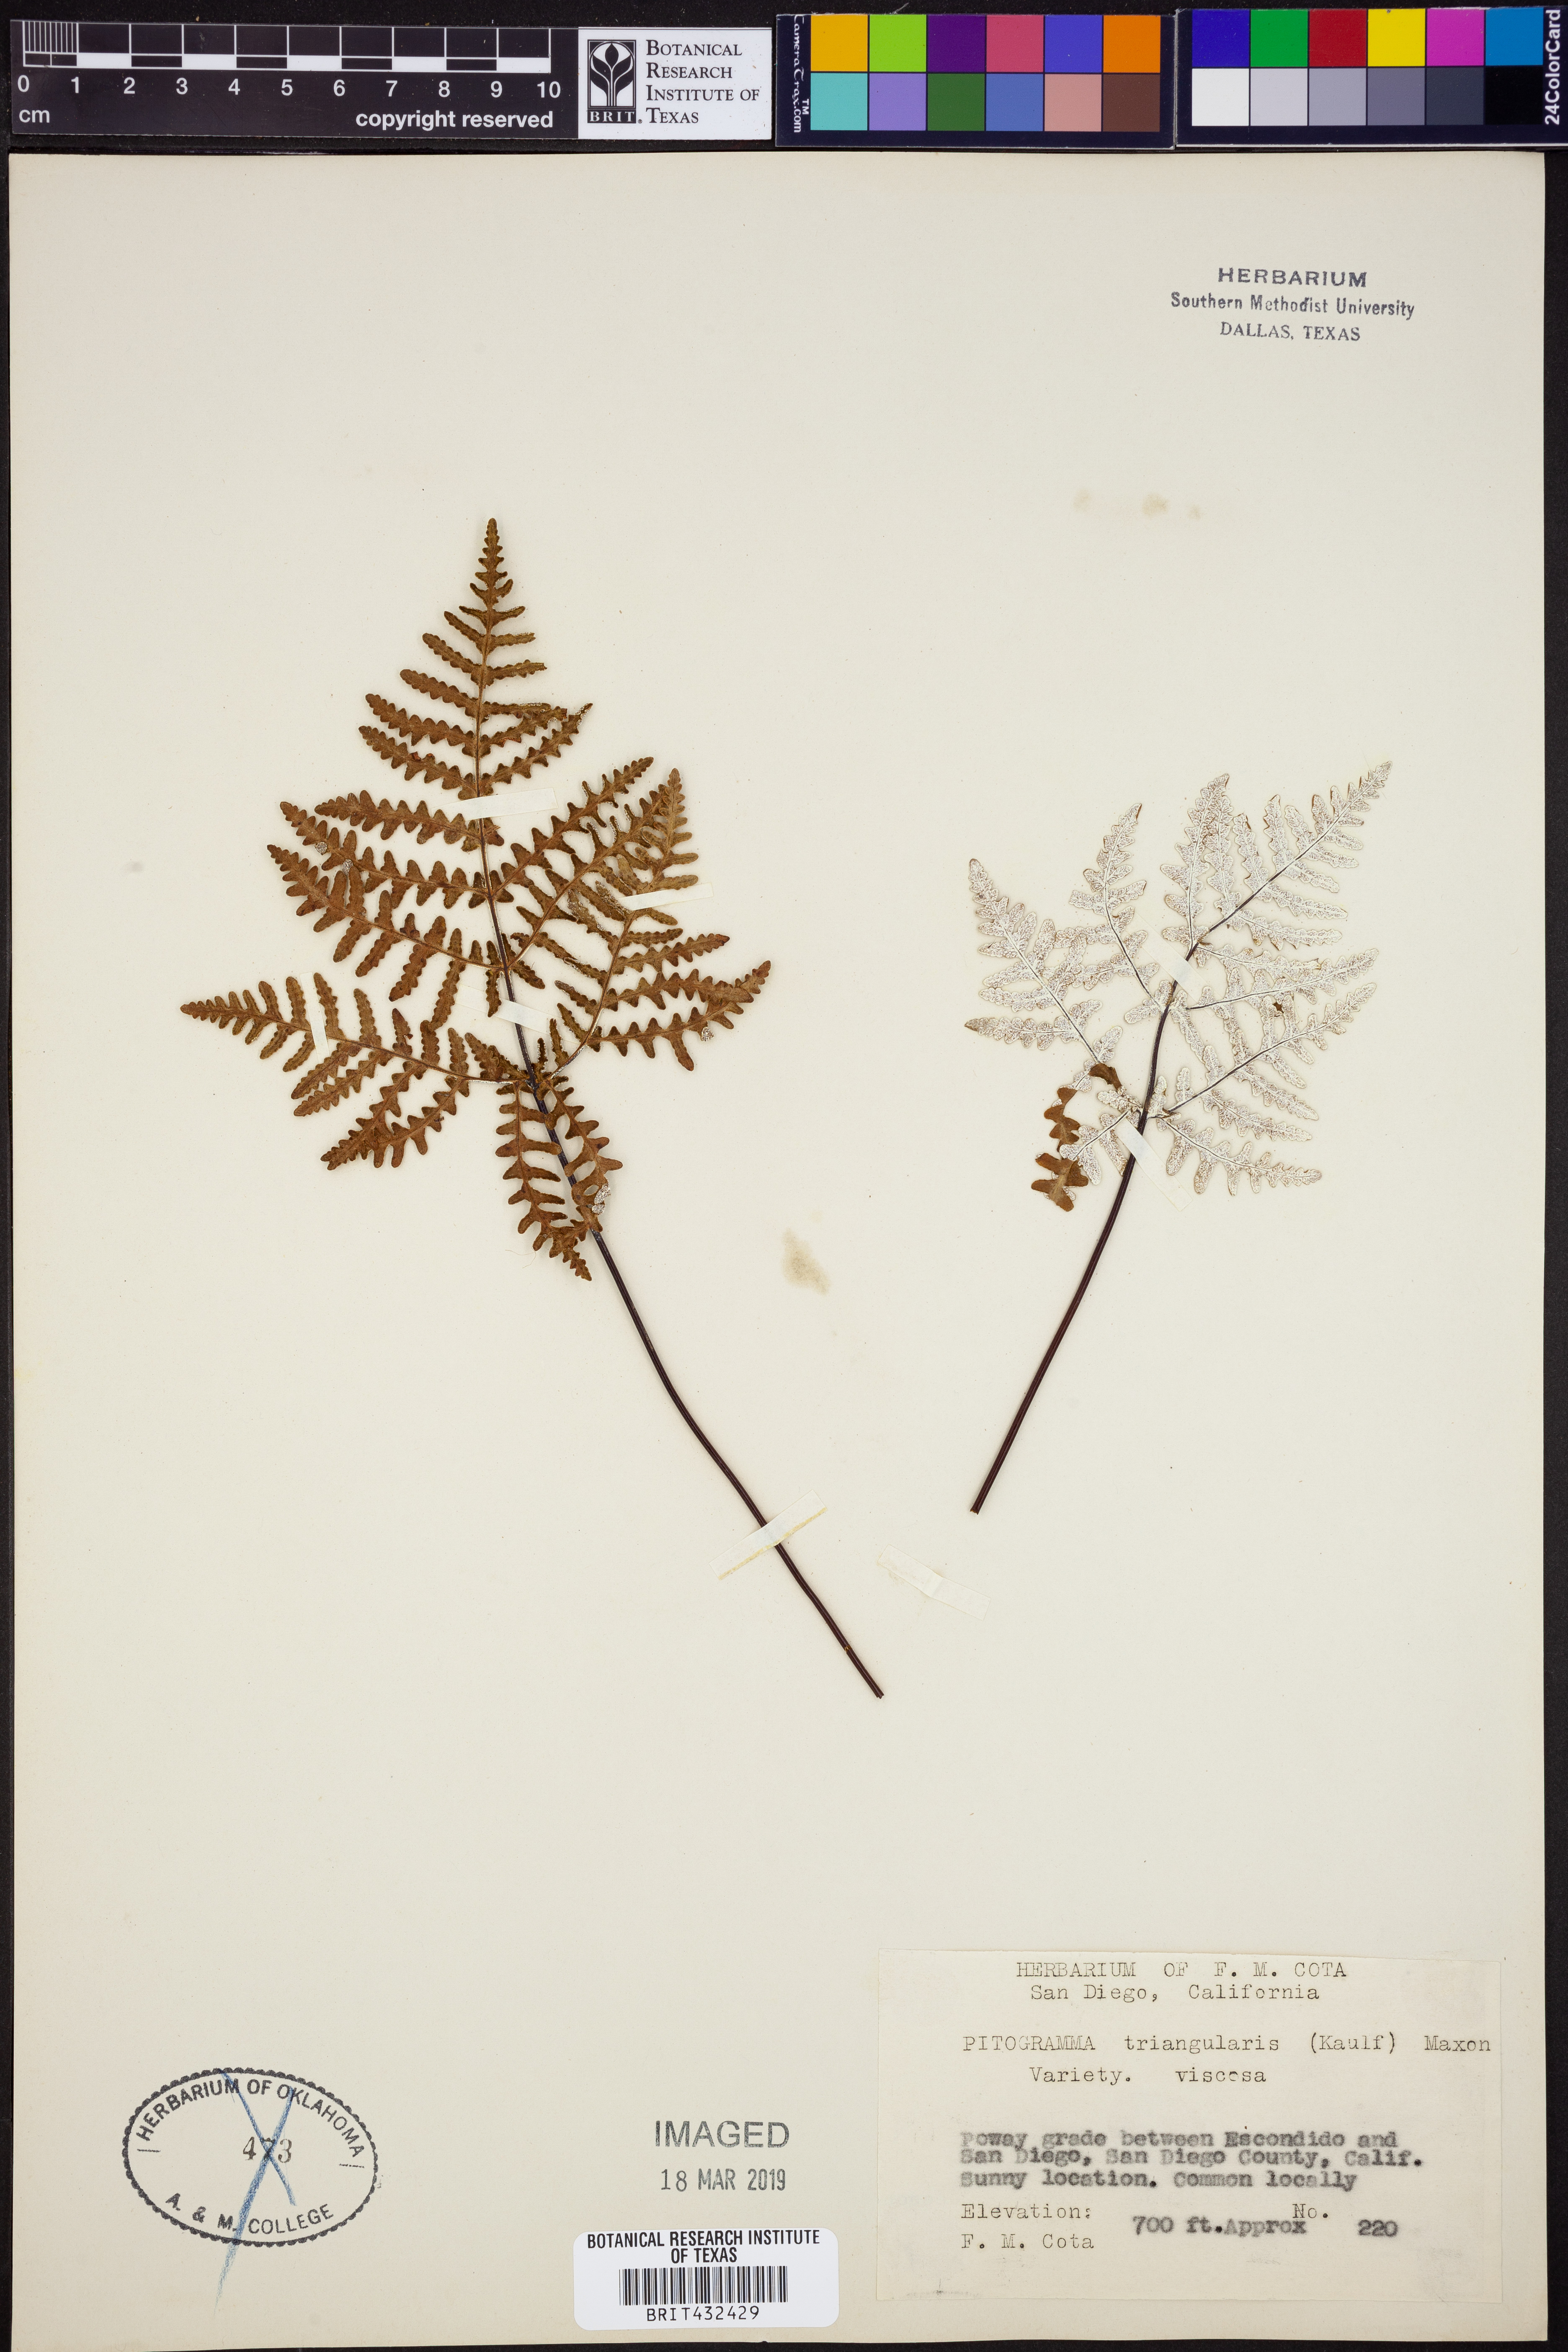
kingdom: Plantae
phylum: Tracheophyta
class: Polypodiopsida
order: Polypodiales
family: Pteridaceae
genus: Pentagramma
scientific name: Pentagramma triangularis
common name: Gold fern
